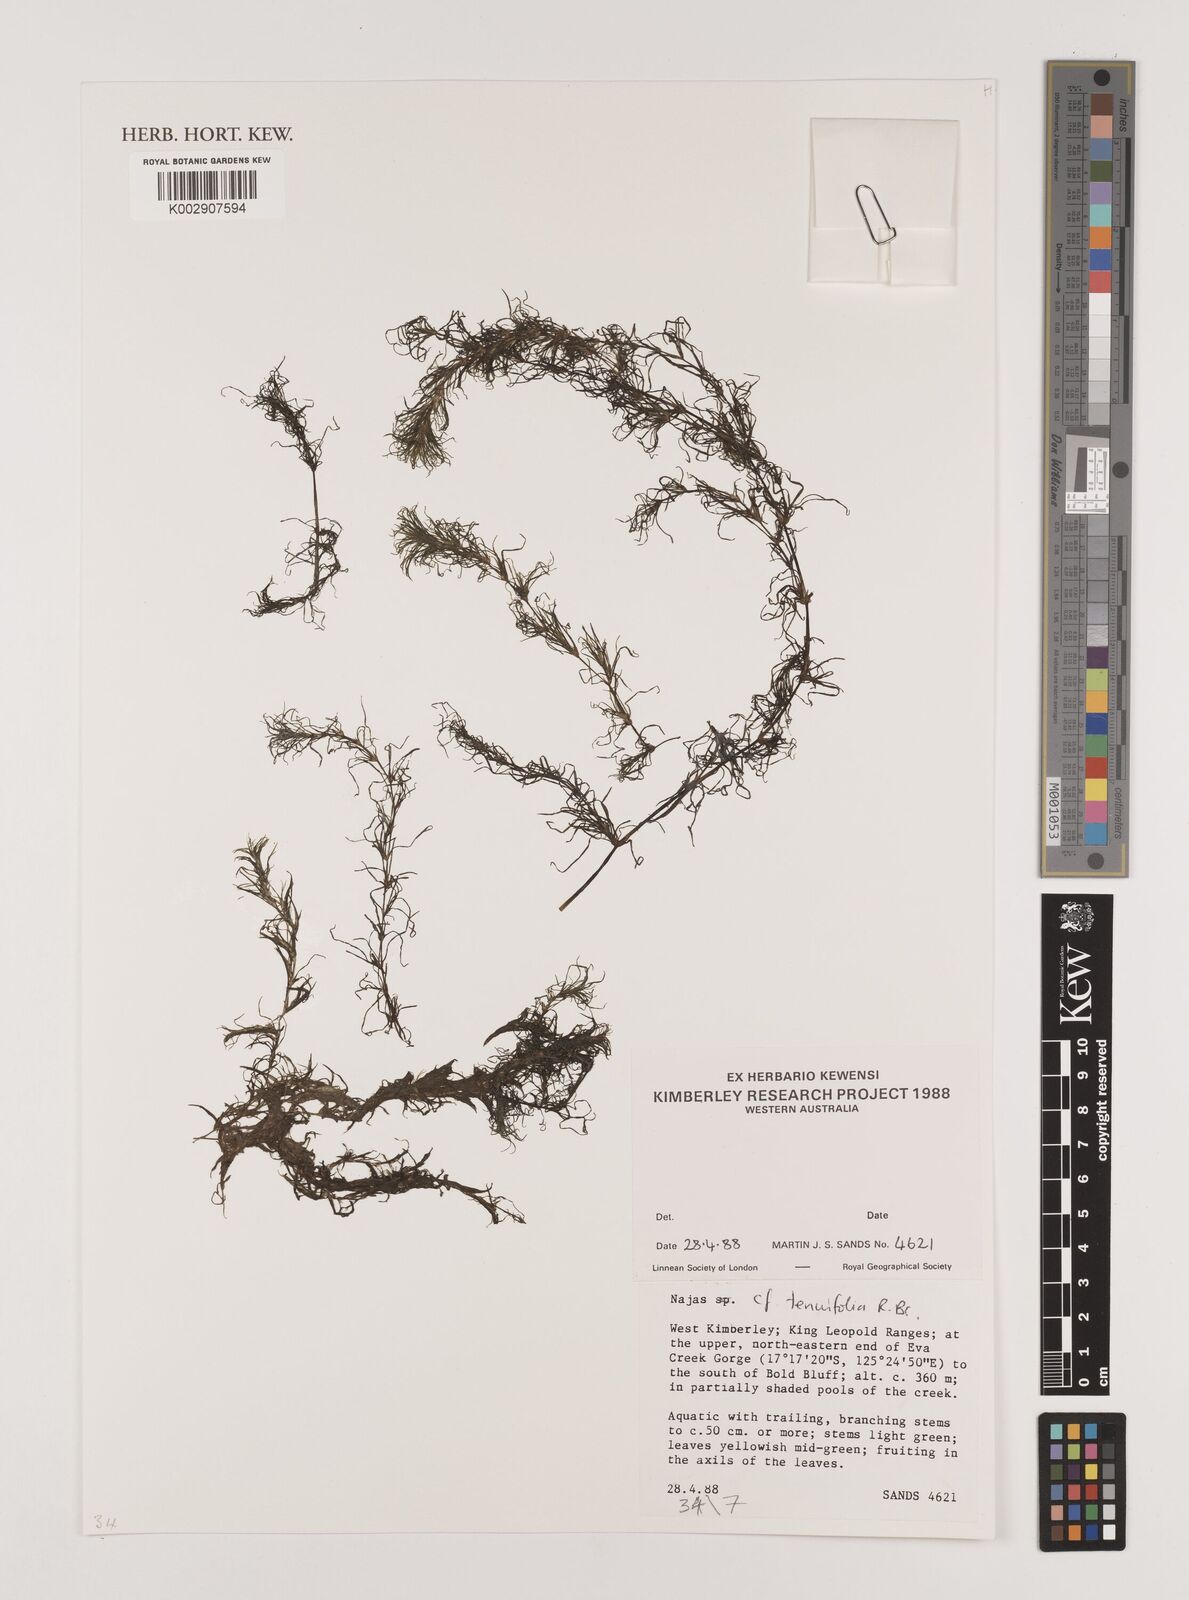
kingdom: Plantae
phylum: Tracheophyta
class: Liliopsida
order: Alismatales
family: Hydrocharitaceae
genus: Najas
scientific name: Najas tenuifolia
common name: Thin-leaved naiad
